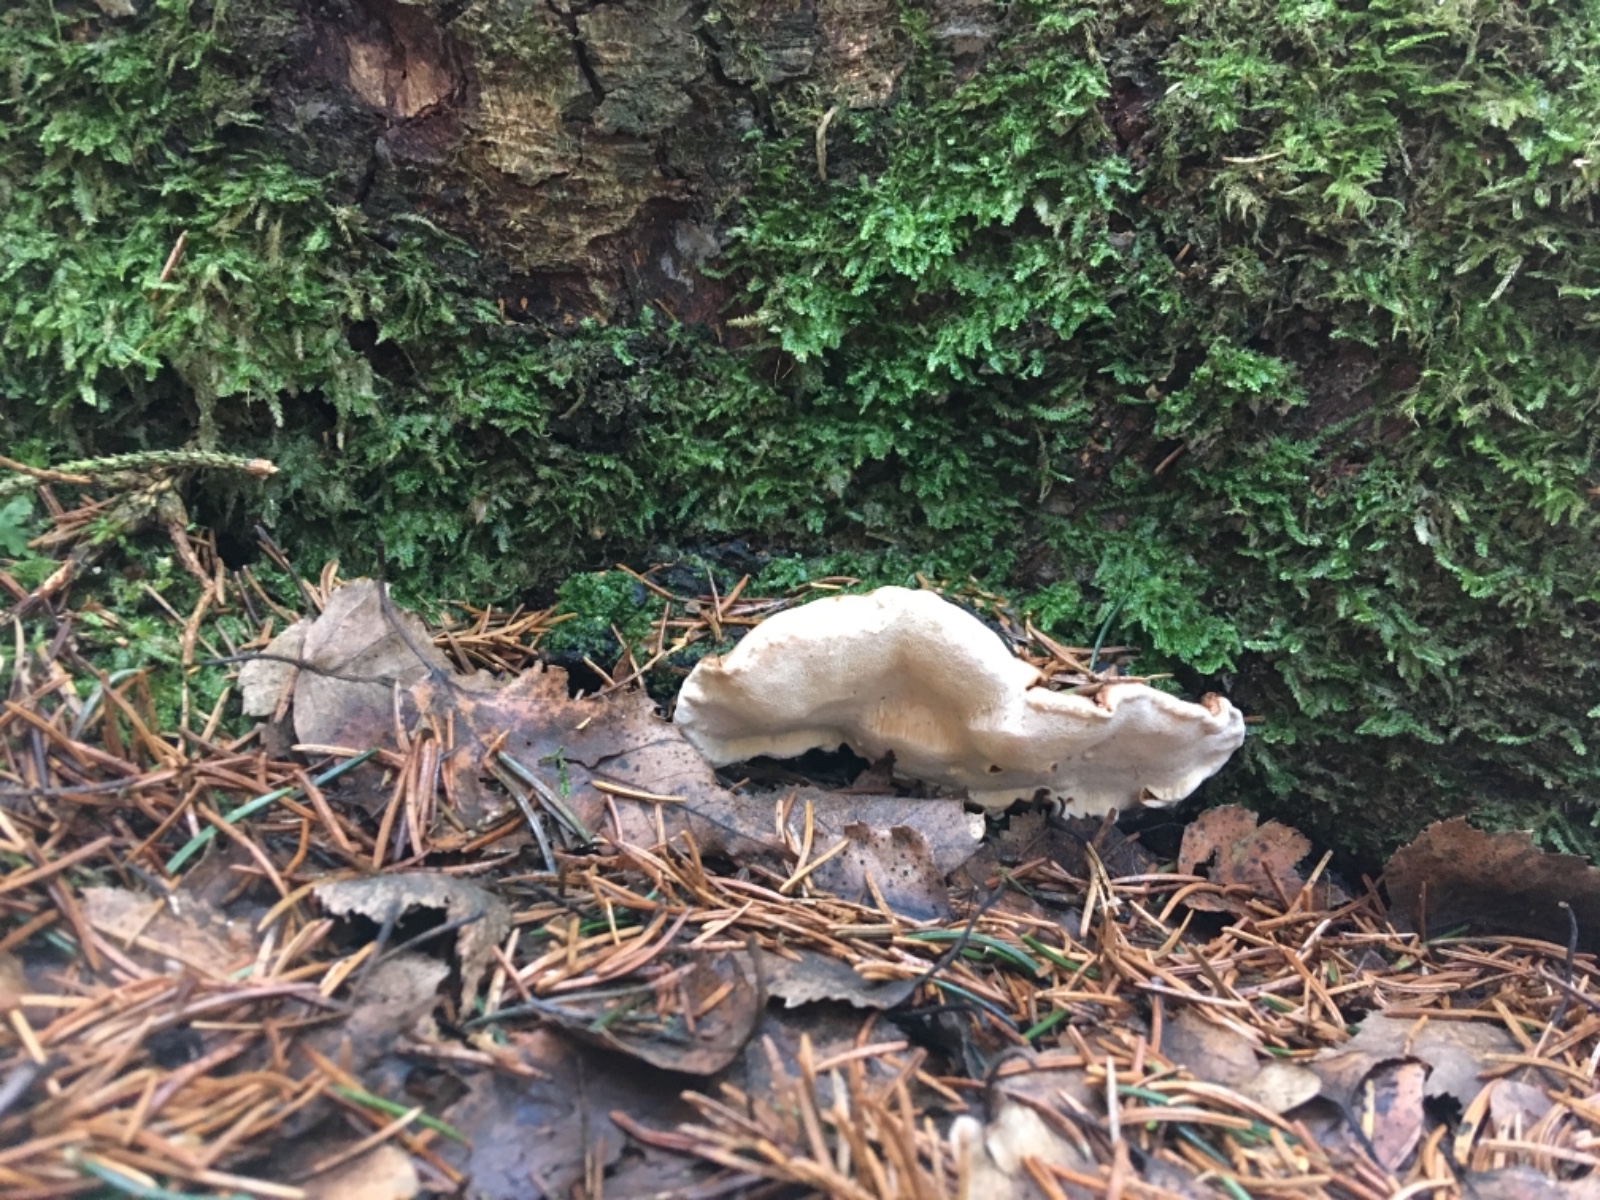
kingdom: Fungi
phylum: Basidiomycota
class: Agaricomycetes
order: Russulales
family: Bondarzewiaceae
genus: Heterobasidion
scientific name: Heterobasidion annosum
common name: almindelig rodfordærver
